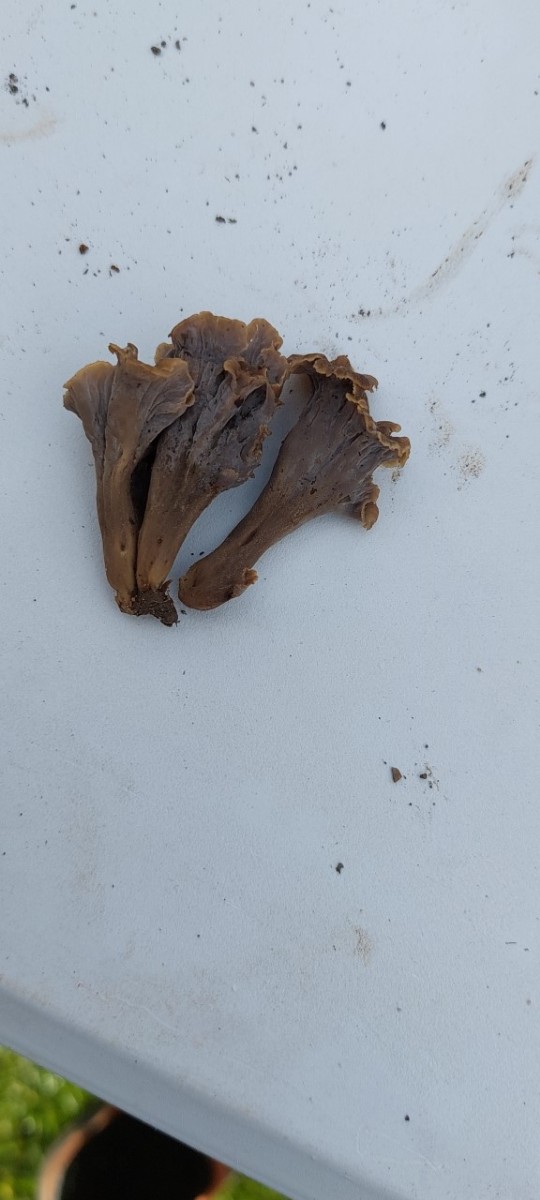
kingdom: Fungi
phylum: Basidiomycota
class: Agaricomycetes
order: Cantharellales
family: Hydnaceae
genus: Craterellus
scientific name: Craterellus undulatus
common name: liden kantarel
